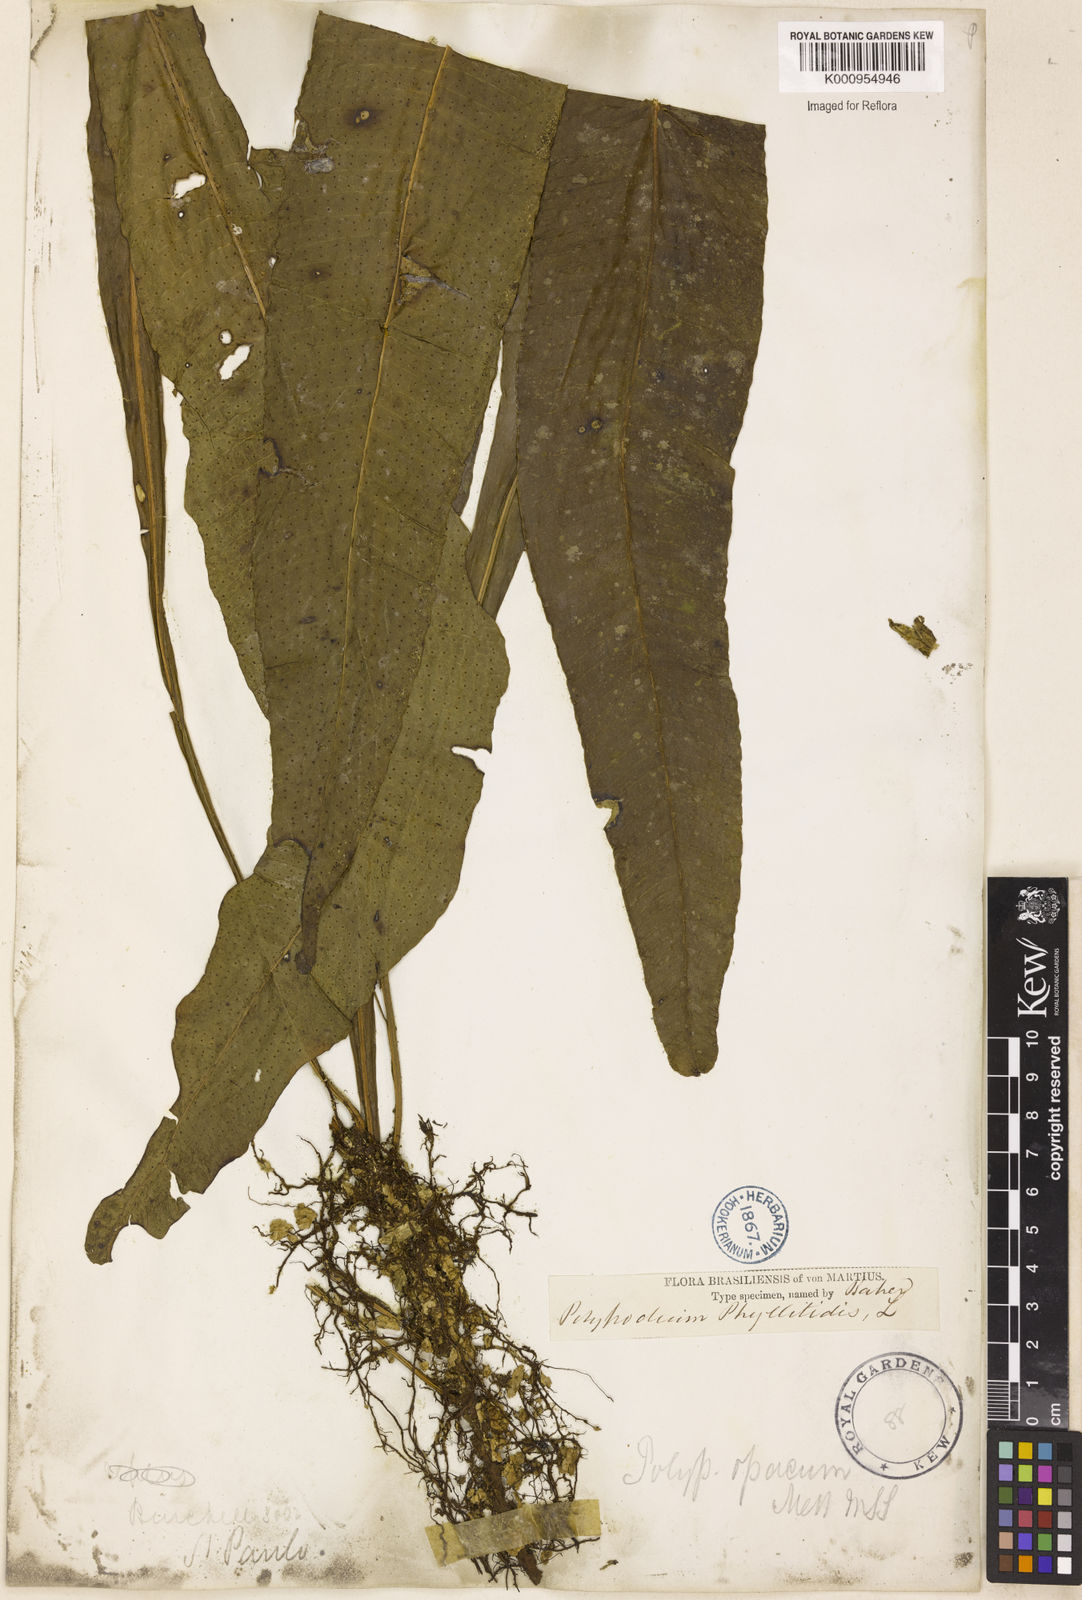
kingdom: Plantae
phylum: Tracheophyta
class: Polypodiopsida
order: Polypodiales
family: Polypodiaceae
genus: Campyloneurum
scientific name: Campyloneurum repens
